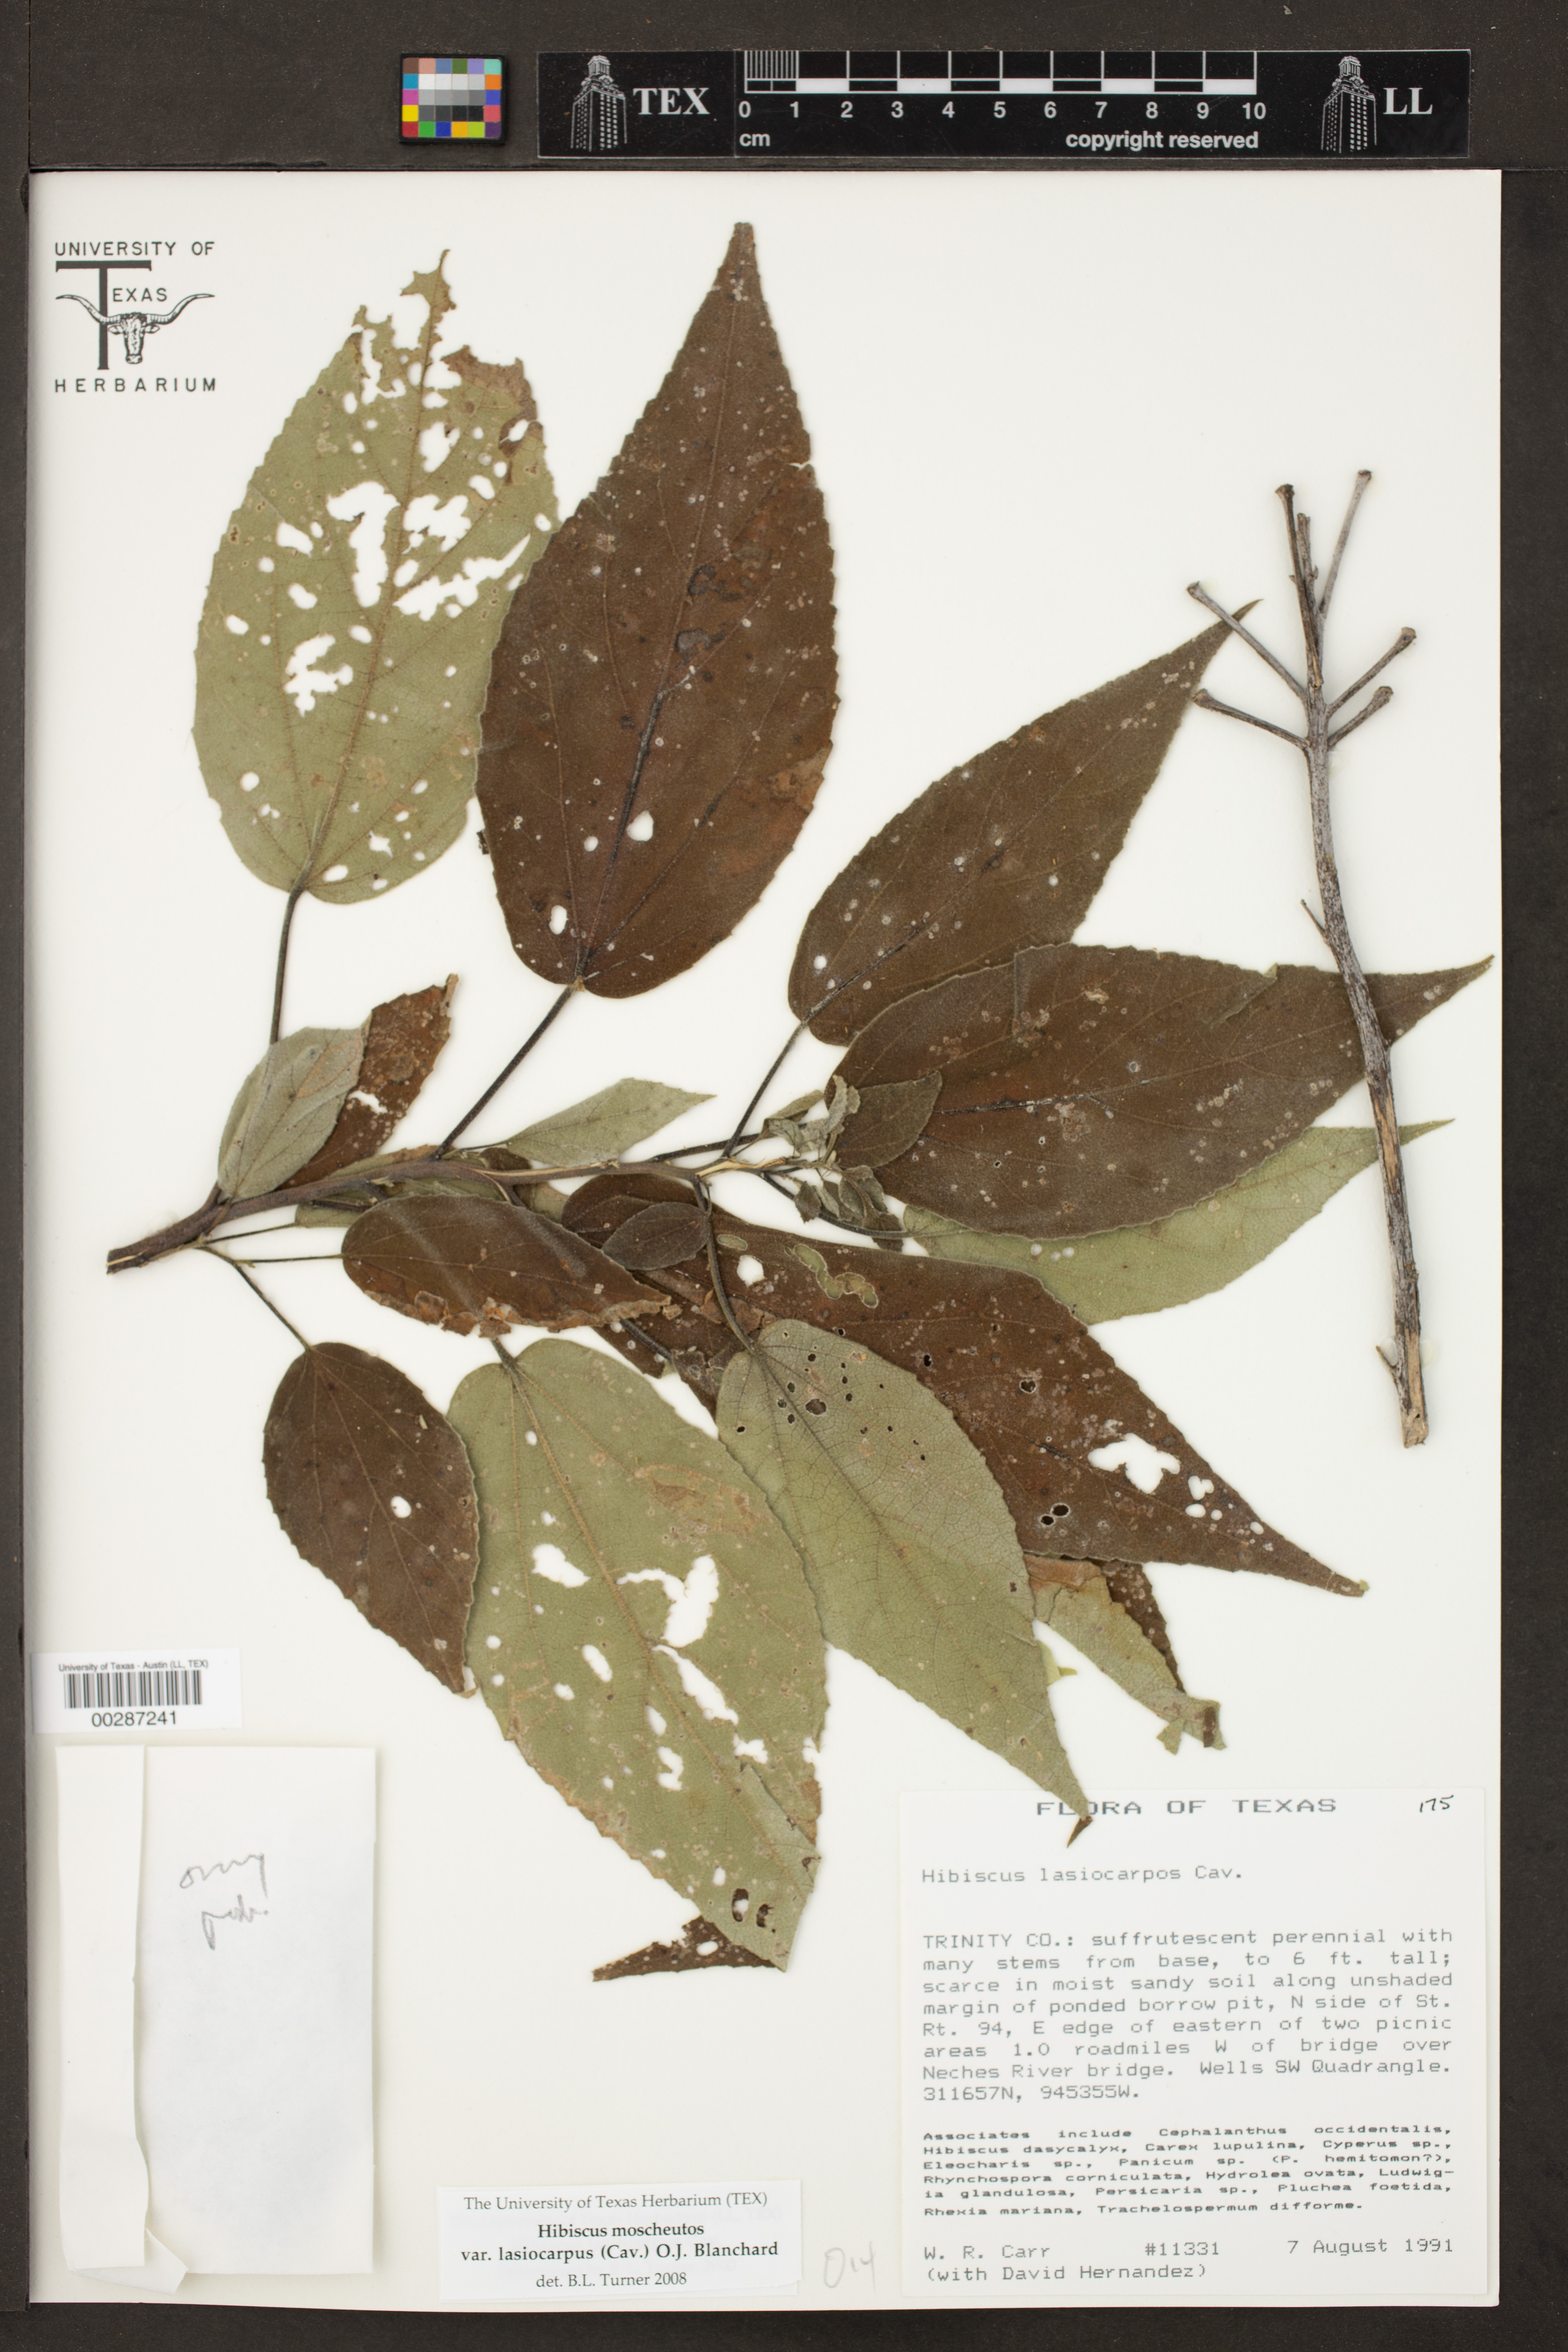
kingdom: Plantae
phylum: Tracheophyta
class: Magnoliopsida
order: Malvales
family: Malvaceae
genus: Hibiscus
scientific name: Hibiscus moscheutos
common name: Common rose-mallow
